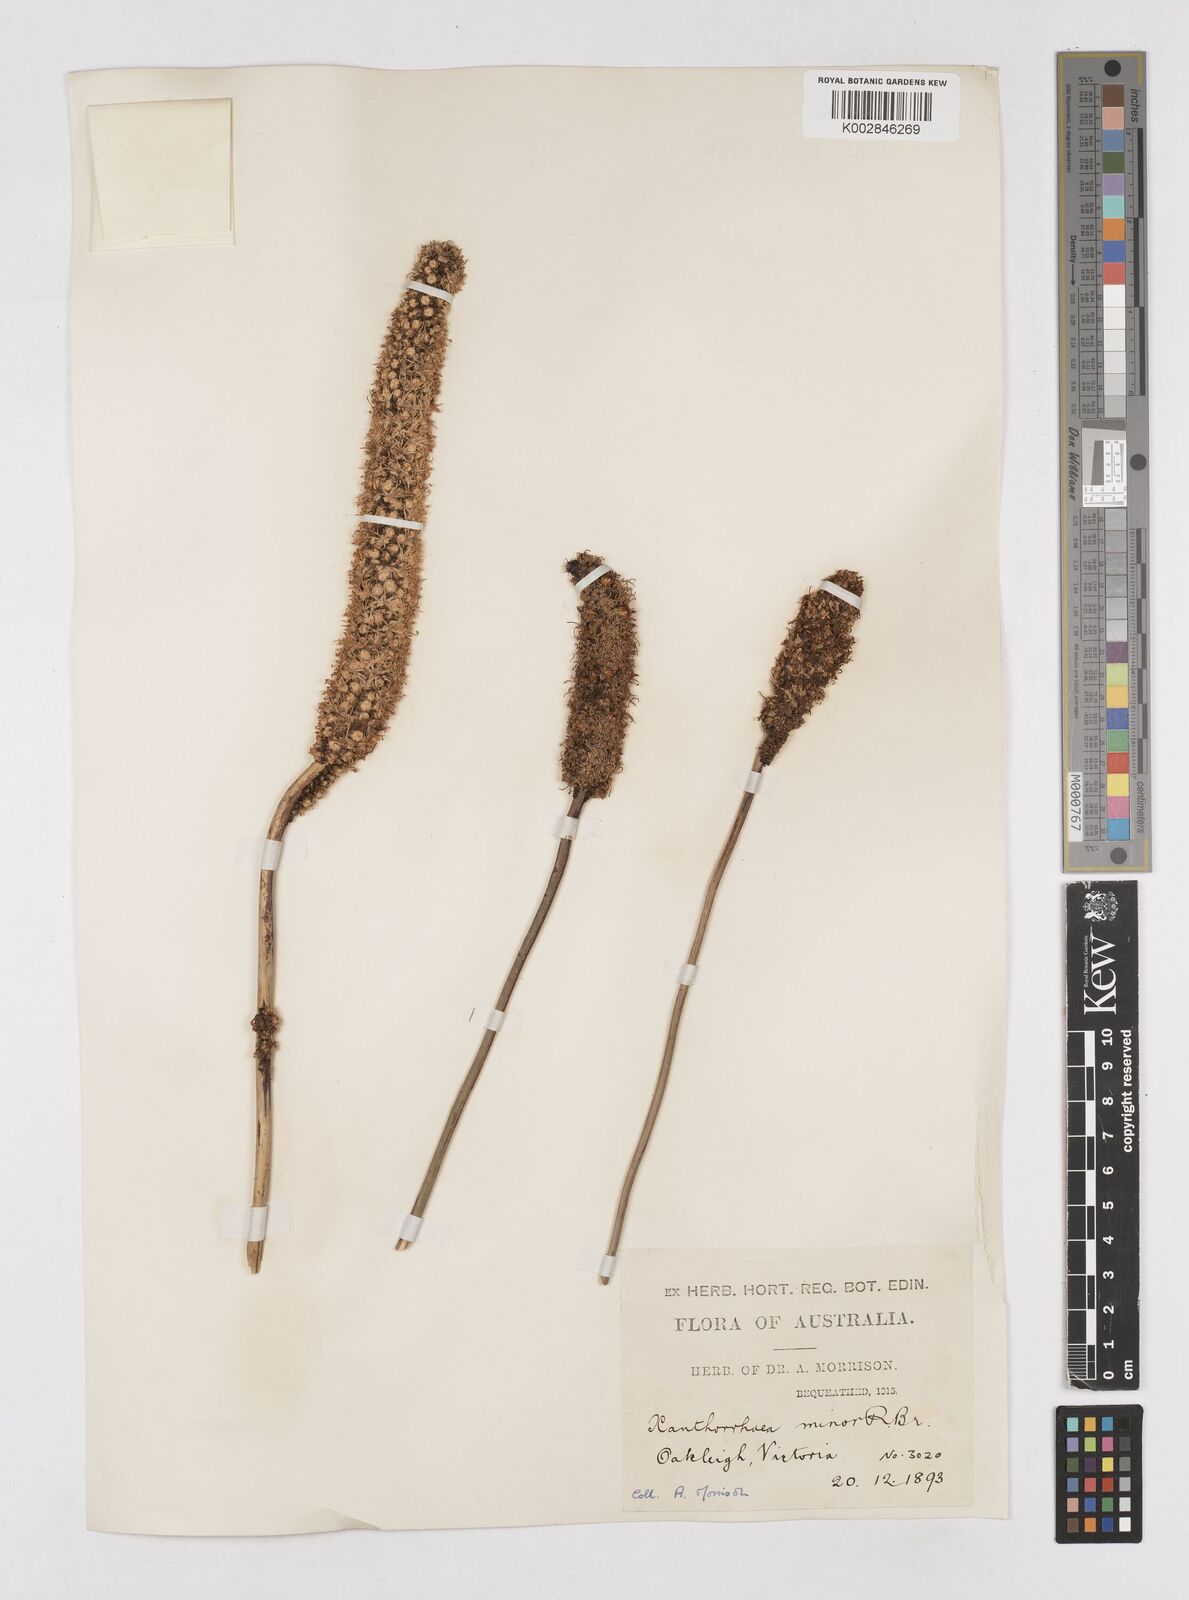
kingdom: Plantae
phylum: Tracheophyta
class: Liliopsida
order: Asparagales
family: Asphodelaceae
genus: Xanthorrhoea
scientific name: Xanthorrhoea minor
